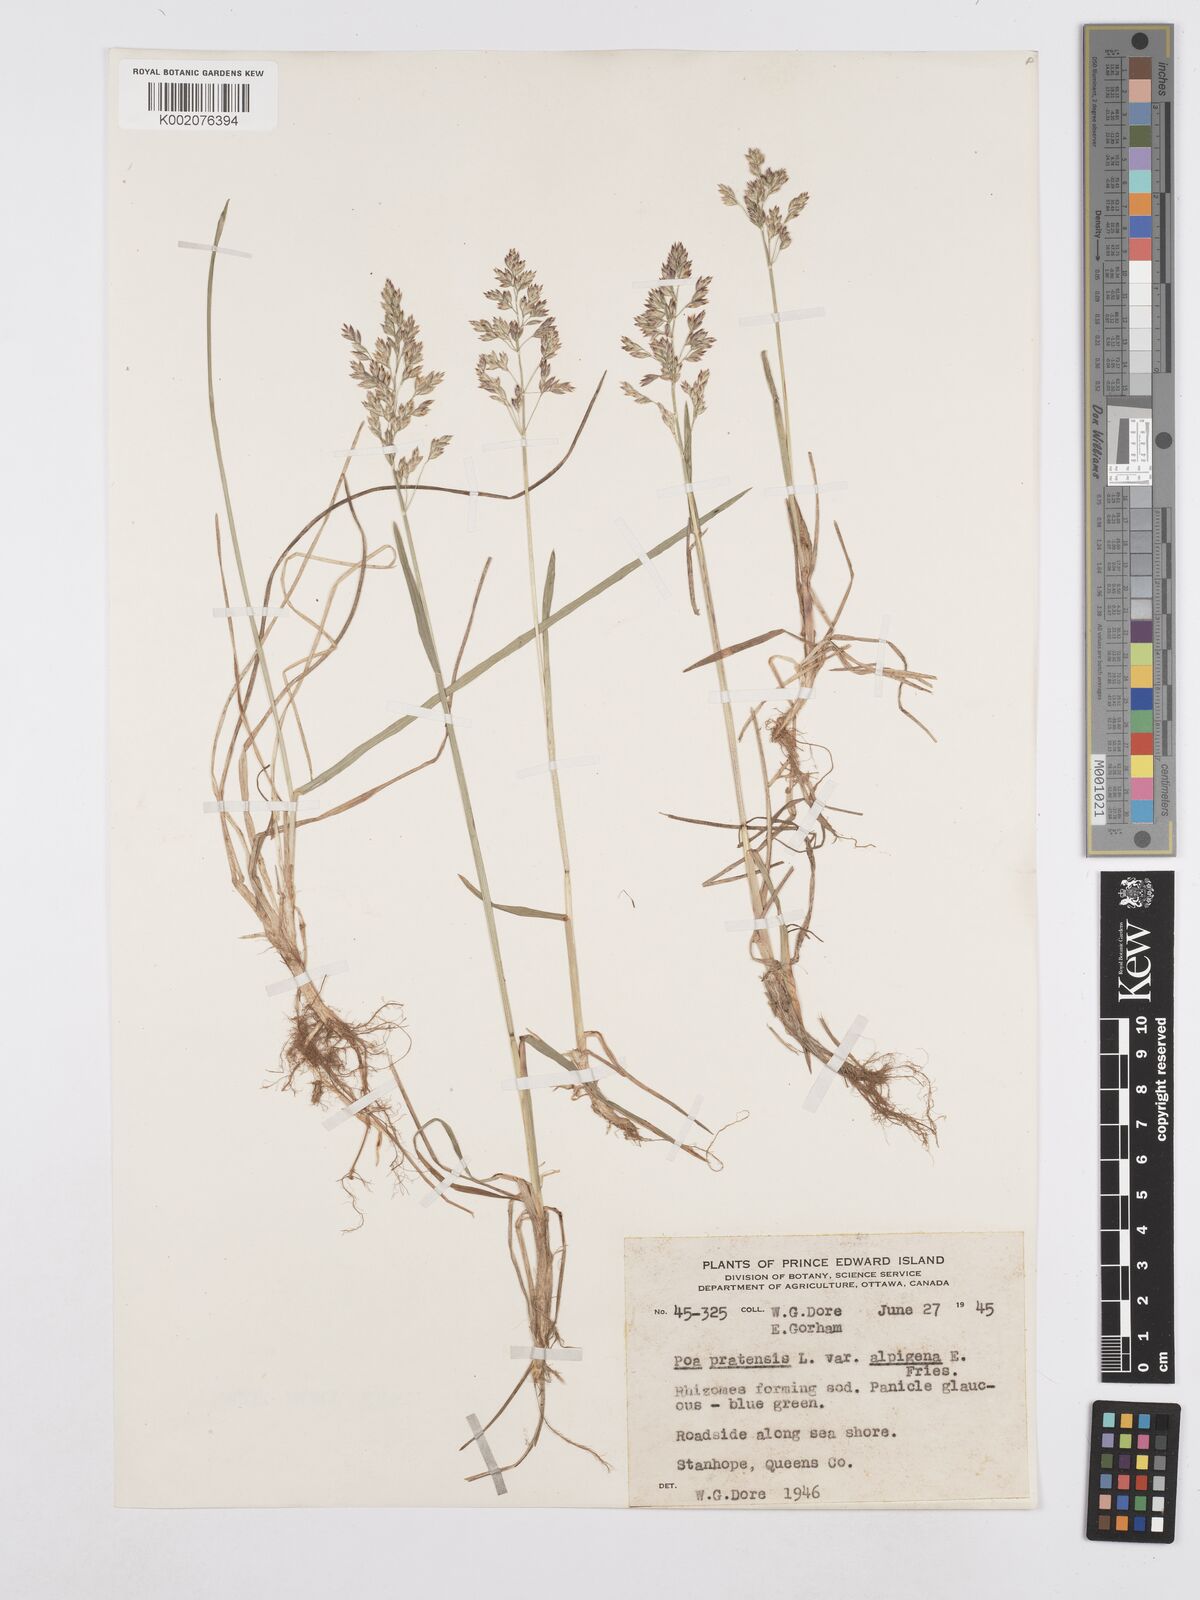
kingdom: Plantae
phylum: Tracheophyta
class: Liliopsida
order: Poales
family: Poaceae
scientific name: Poaceae
